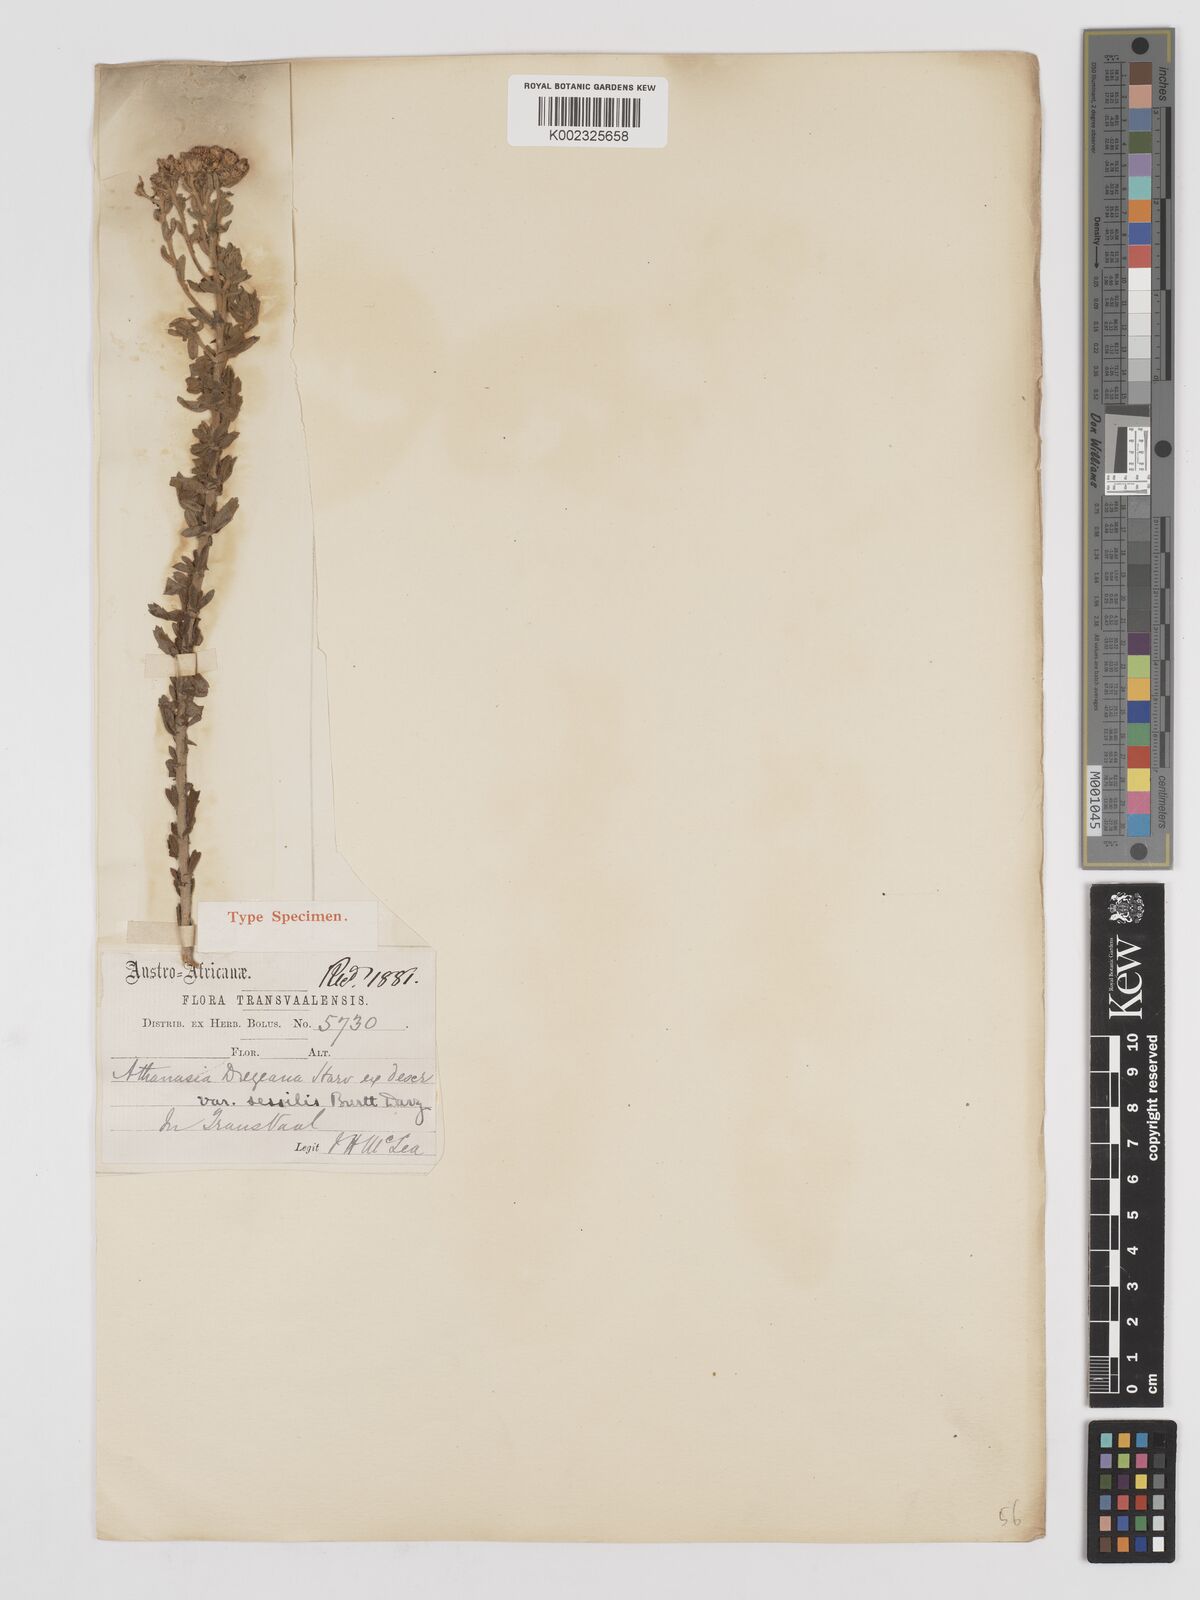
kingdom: Plantae
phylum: Tracheophyta
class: Magnoliopsida
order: Asterales
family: Asteraceae
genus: Inulanthera
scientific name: Inulanthera dregeana
